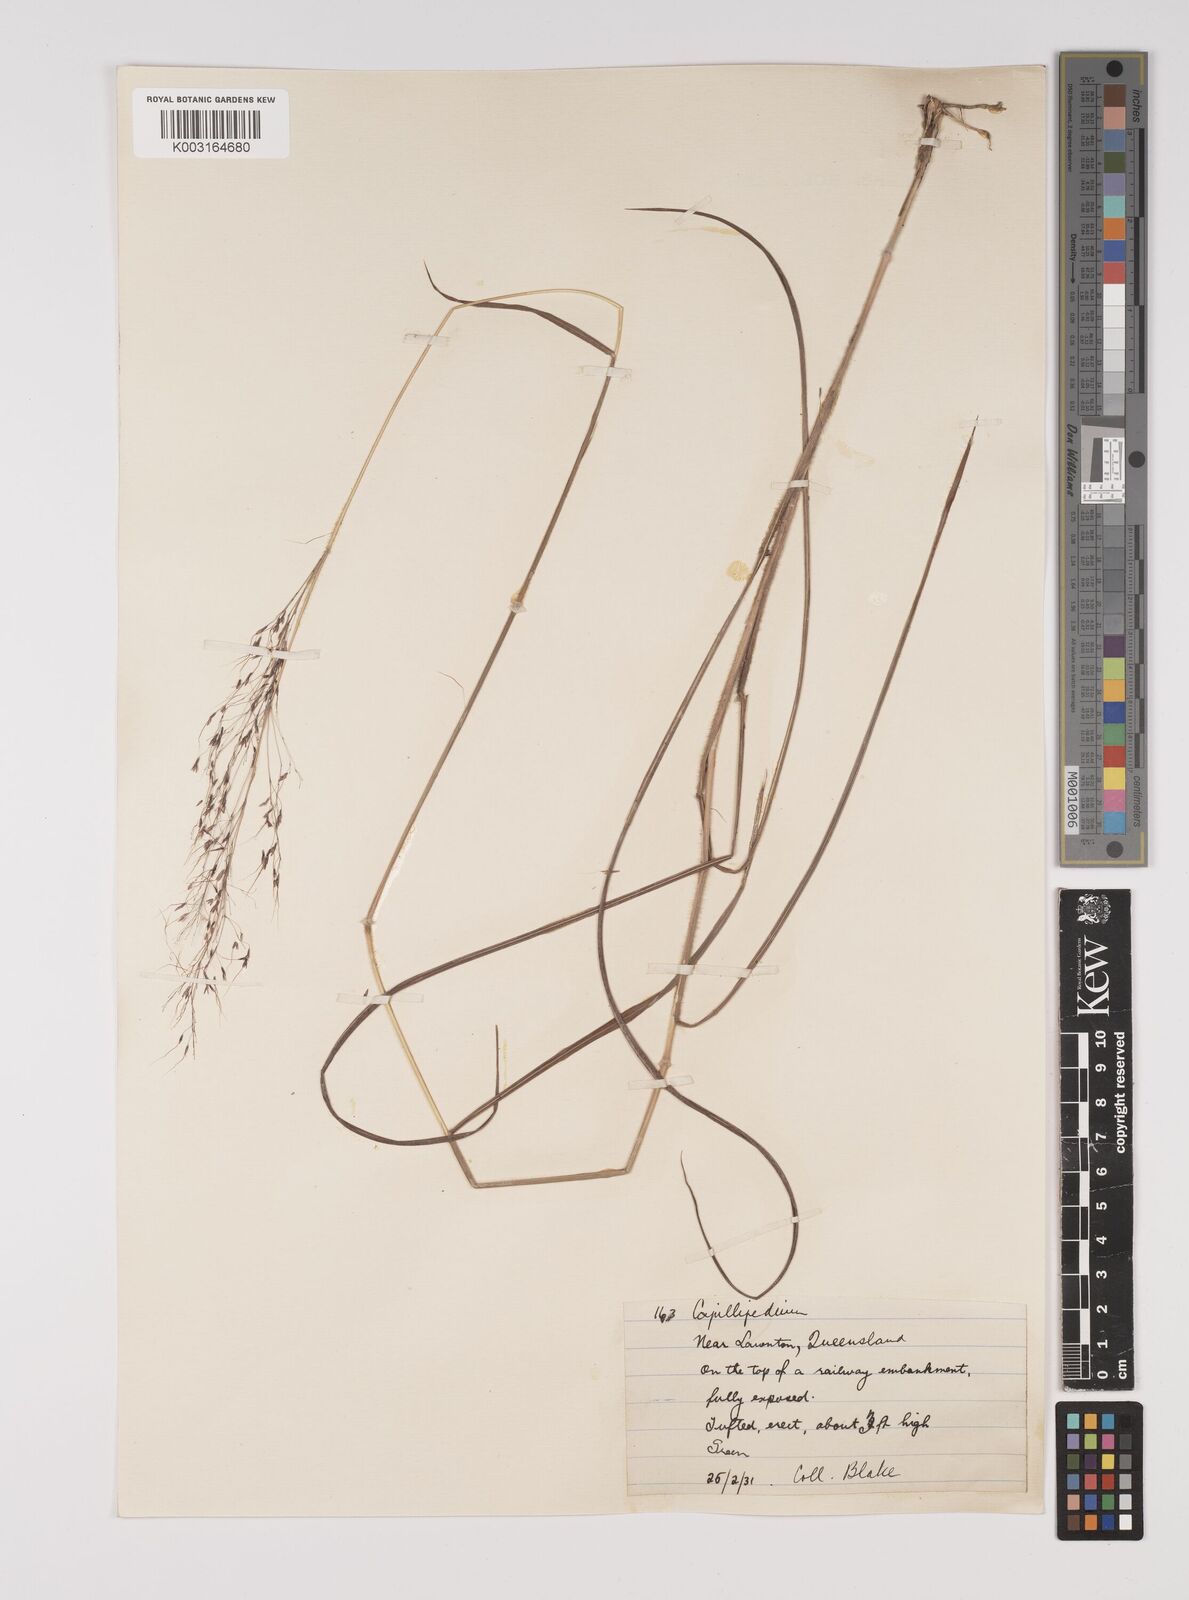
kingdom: Plantae
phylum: Tracheophyta
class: Liliopsida
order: Poales
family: Poaceae
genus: Capillipedium
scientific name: Capillipedium parviflorum
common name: Golden-beard
